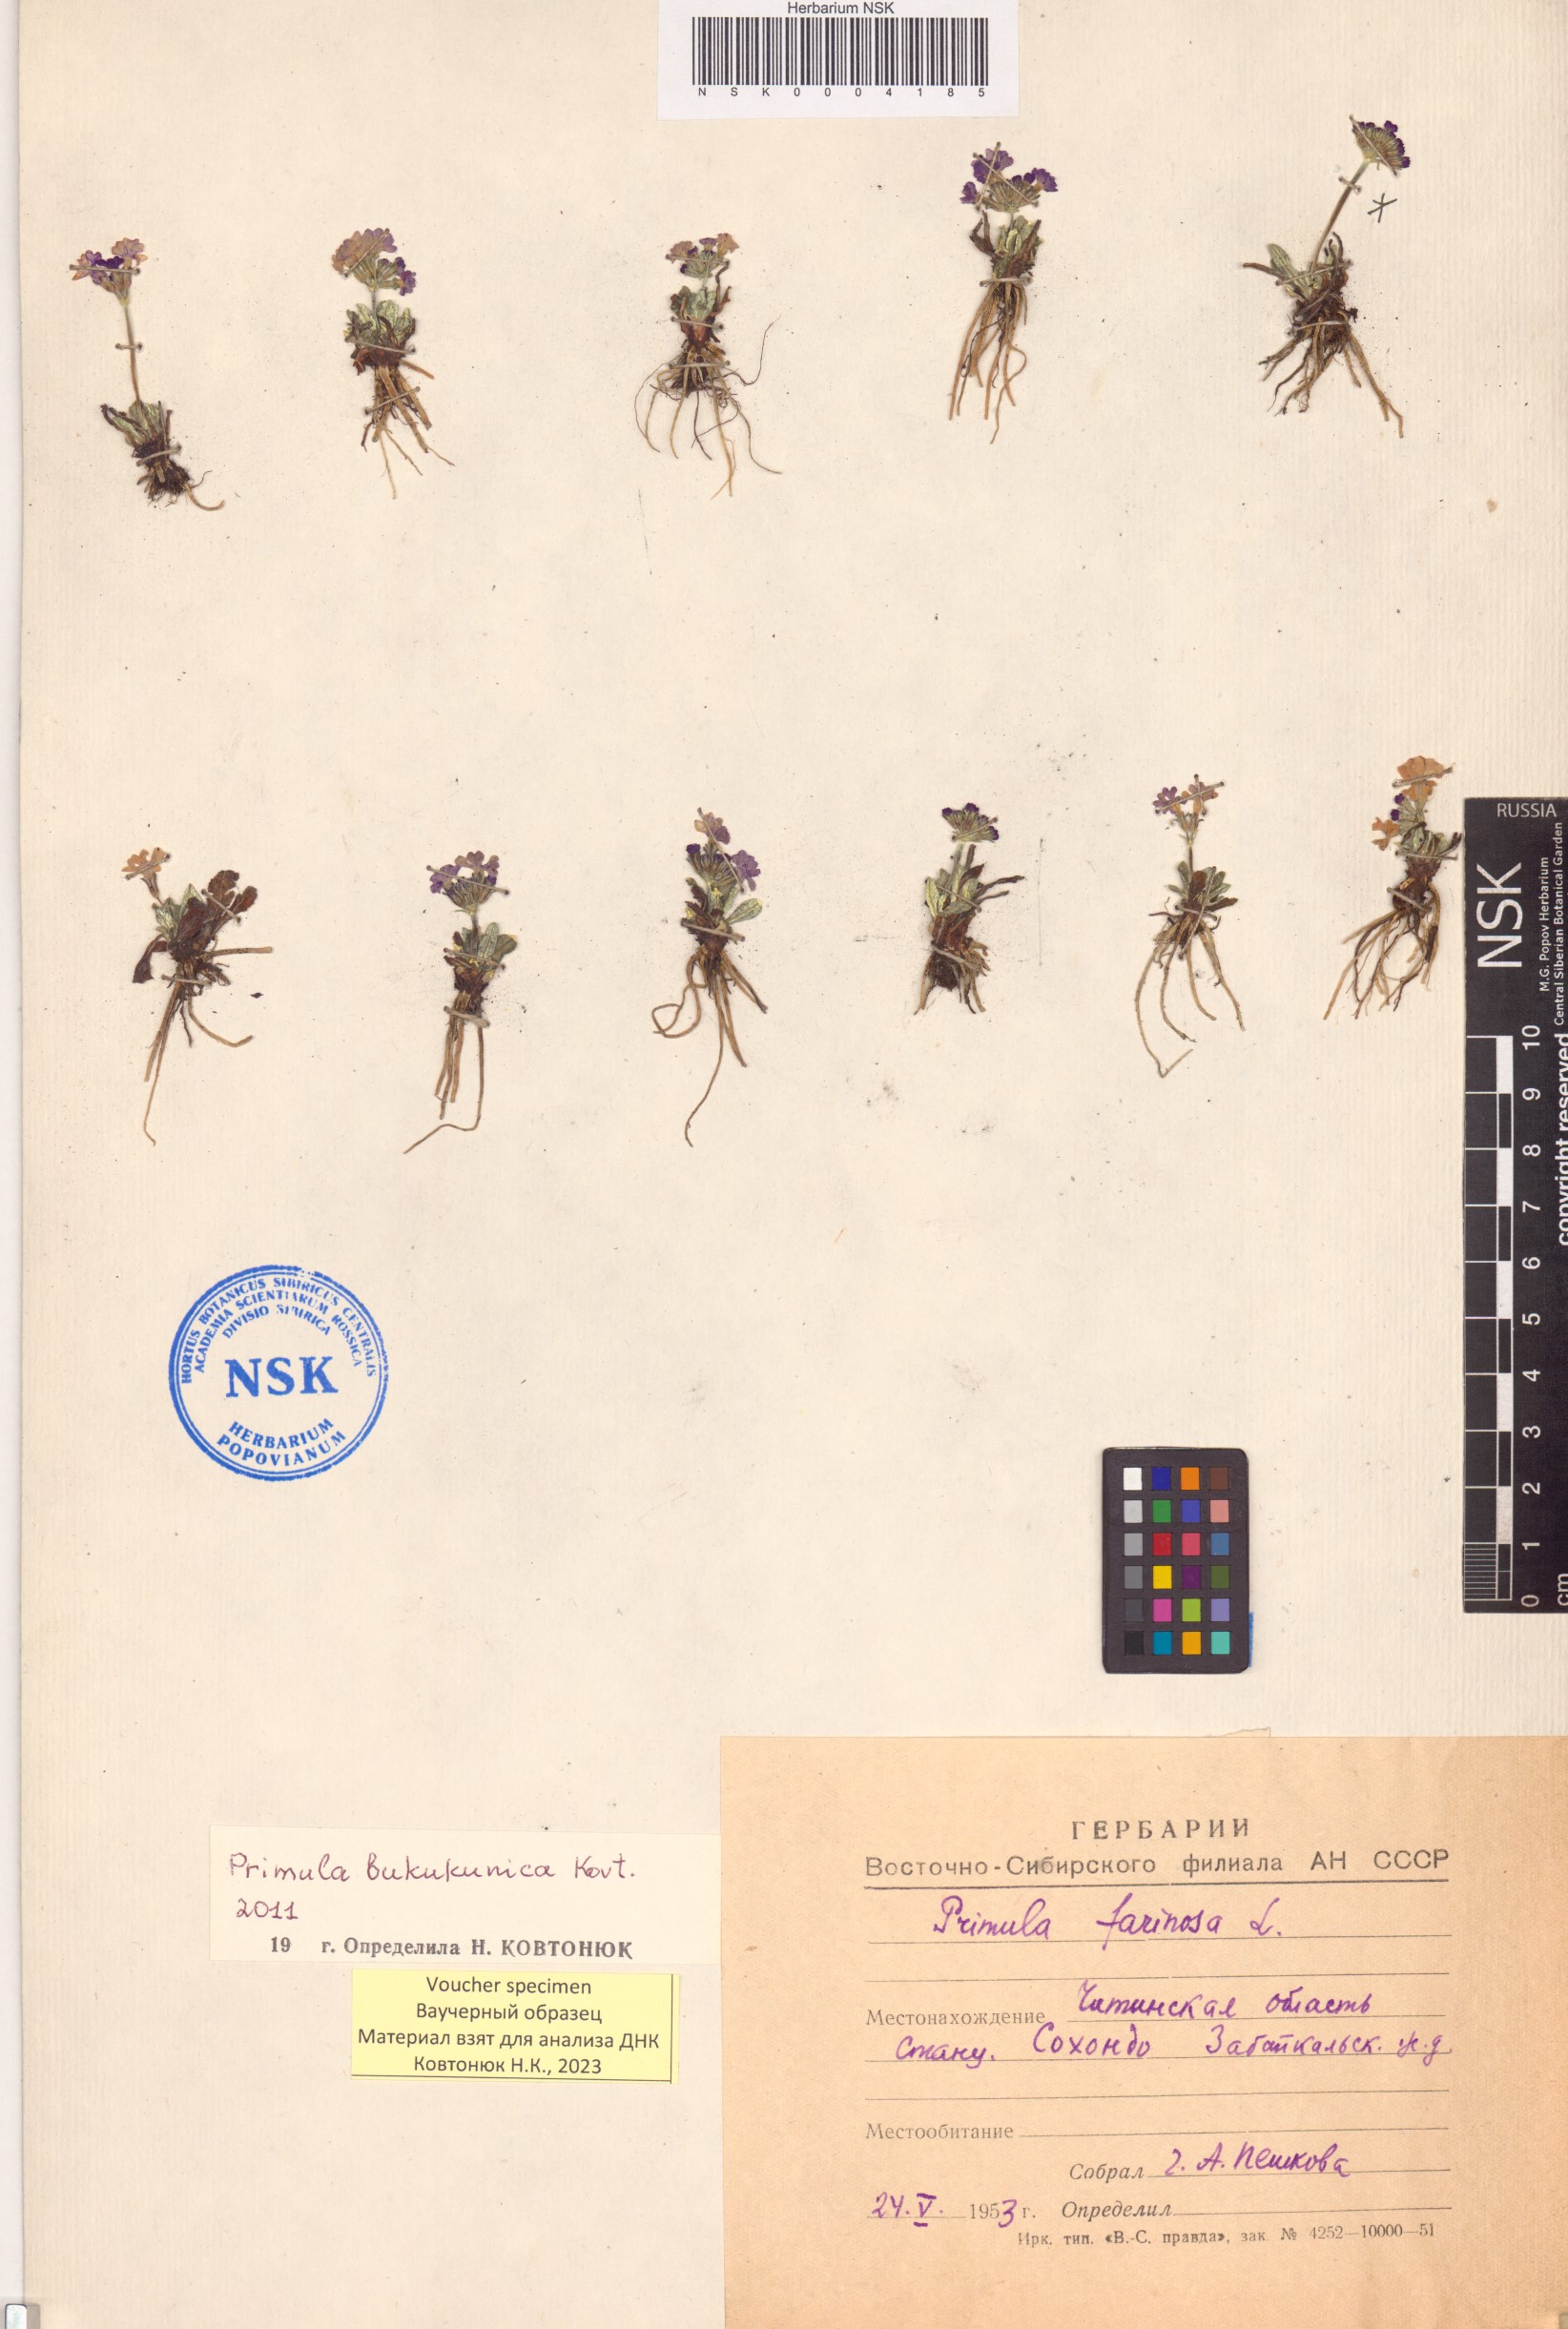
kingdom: Plantae
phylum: Tracheophyta
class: Magnoliopsida
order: Ericales
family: Primulaceae
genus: Primula
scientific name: Primula bukukunica
